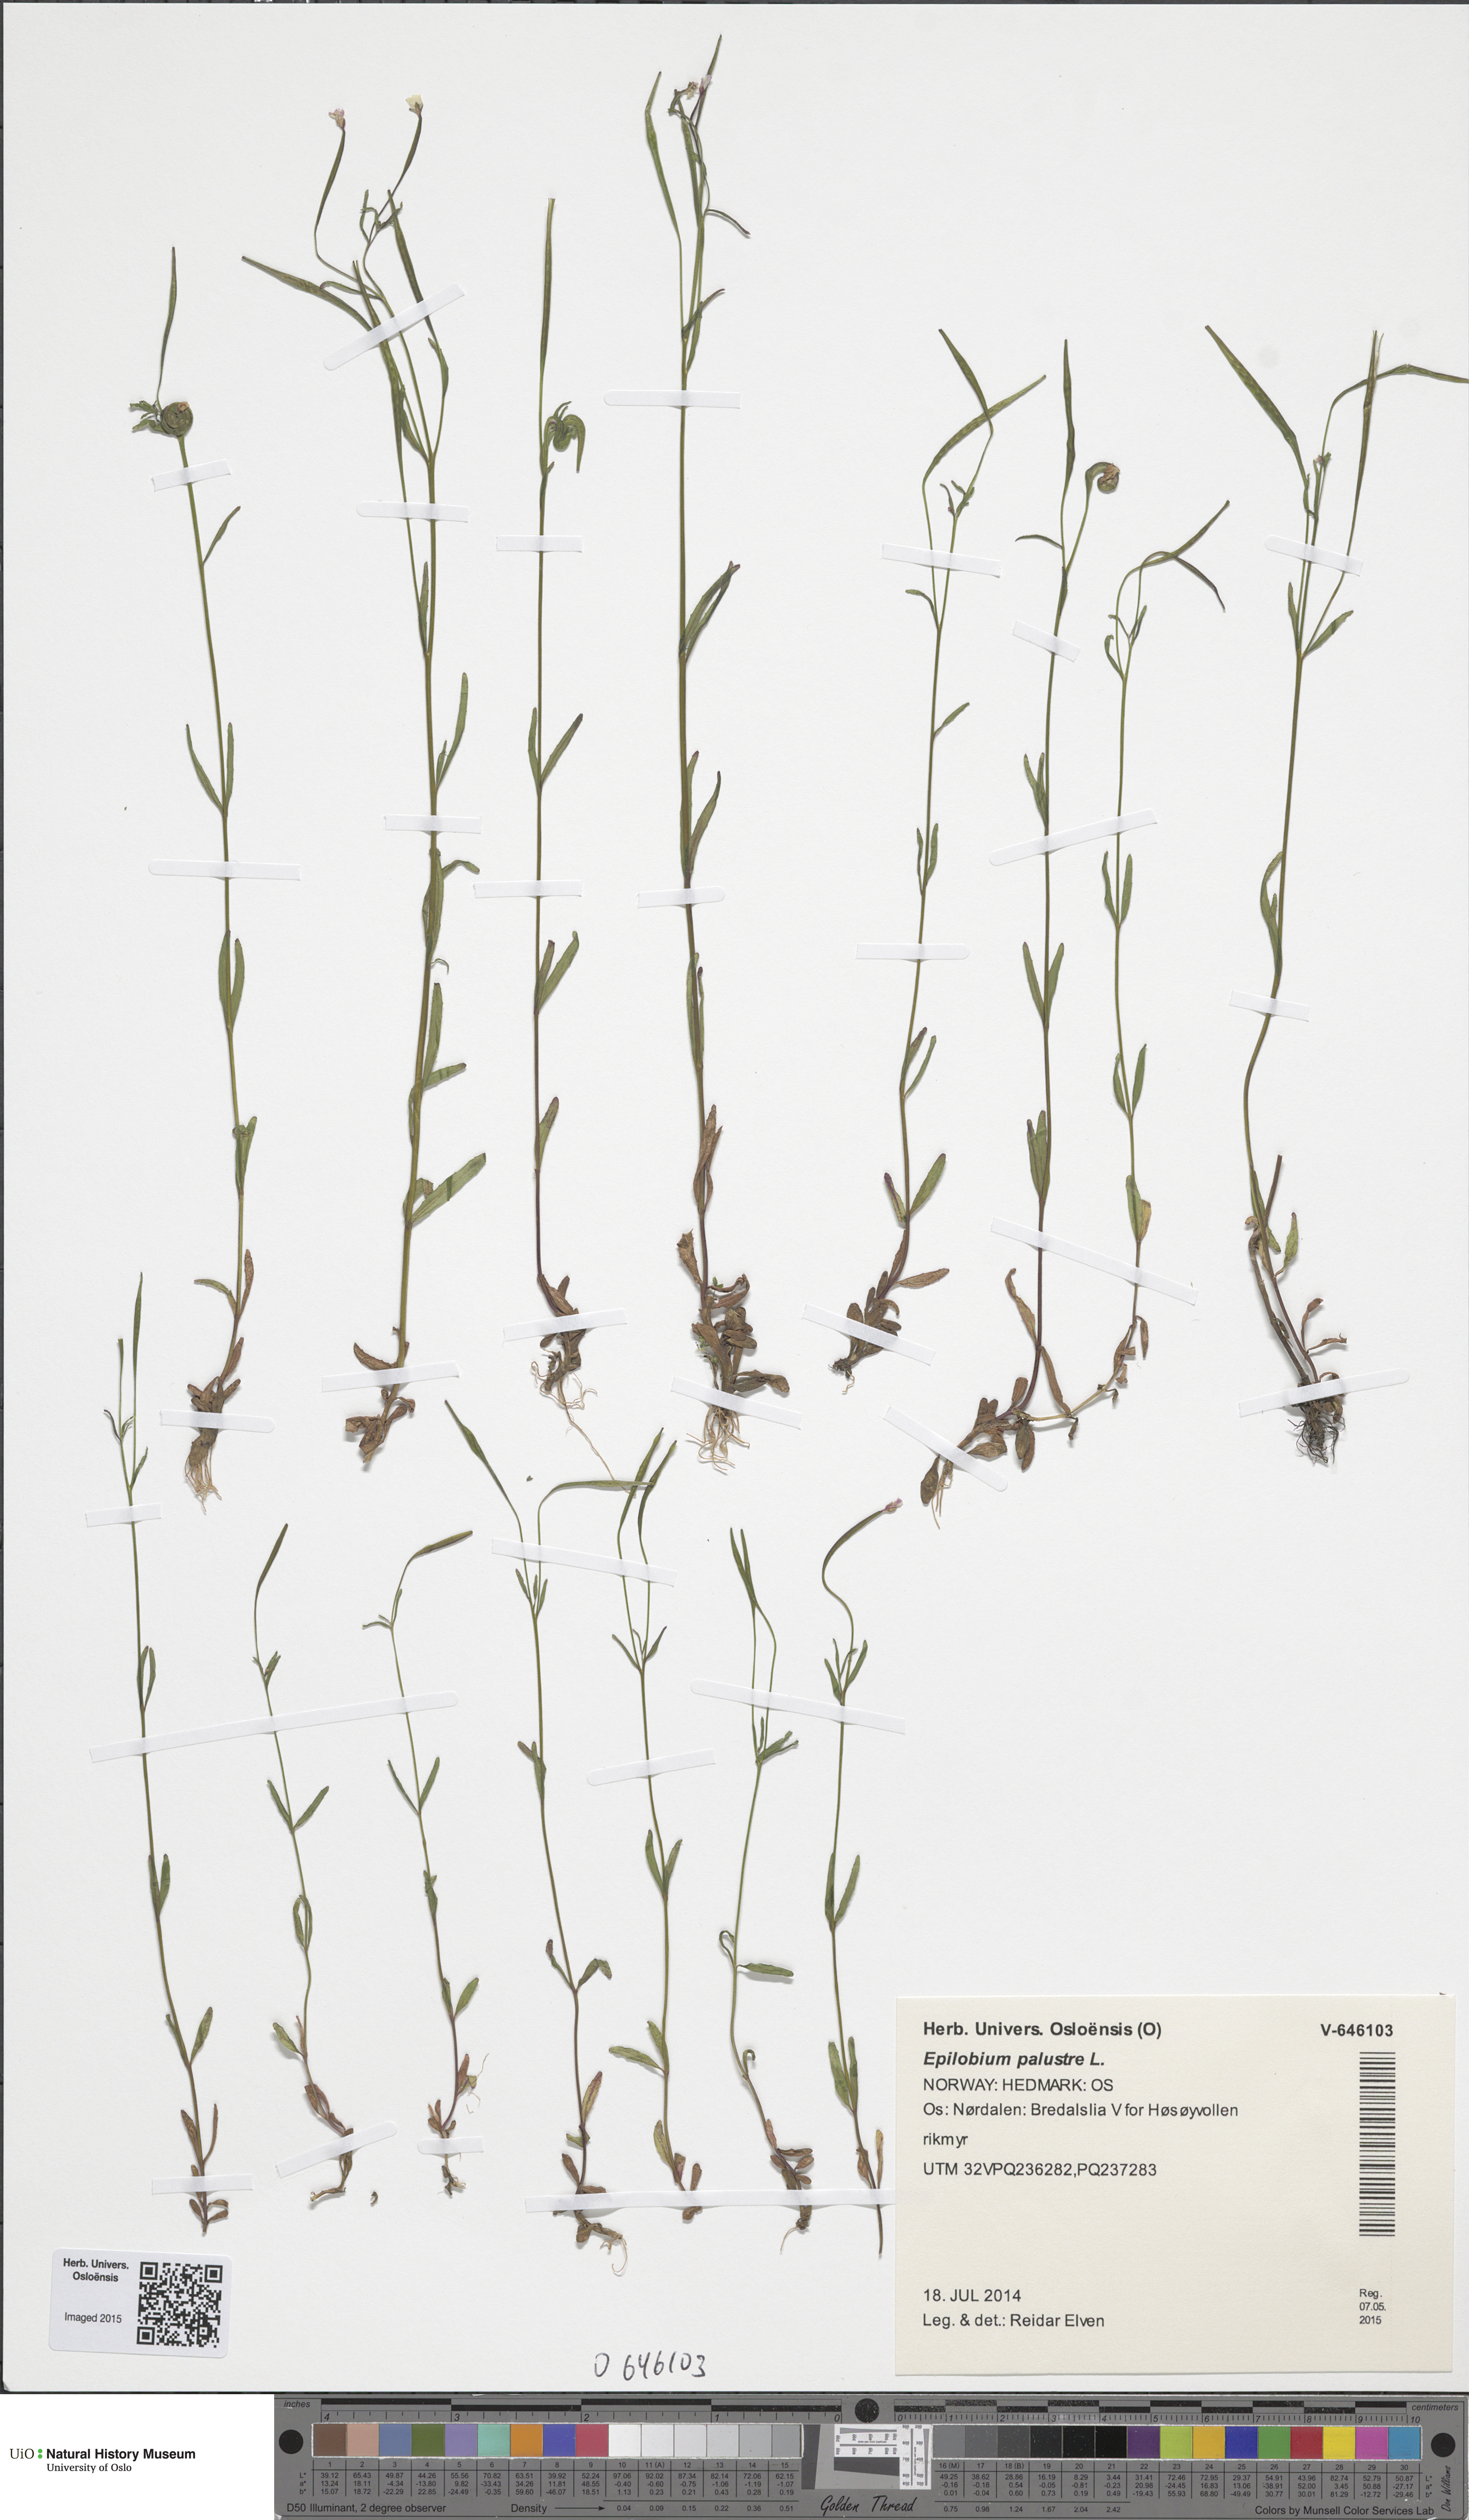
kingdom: Plantae
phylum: Tracheophyta
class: Magnoliopsida
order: Myrtales
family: Onagraceae
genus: Epilobium
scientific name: Epilobium palustre
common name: Marsh willowherb
